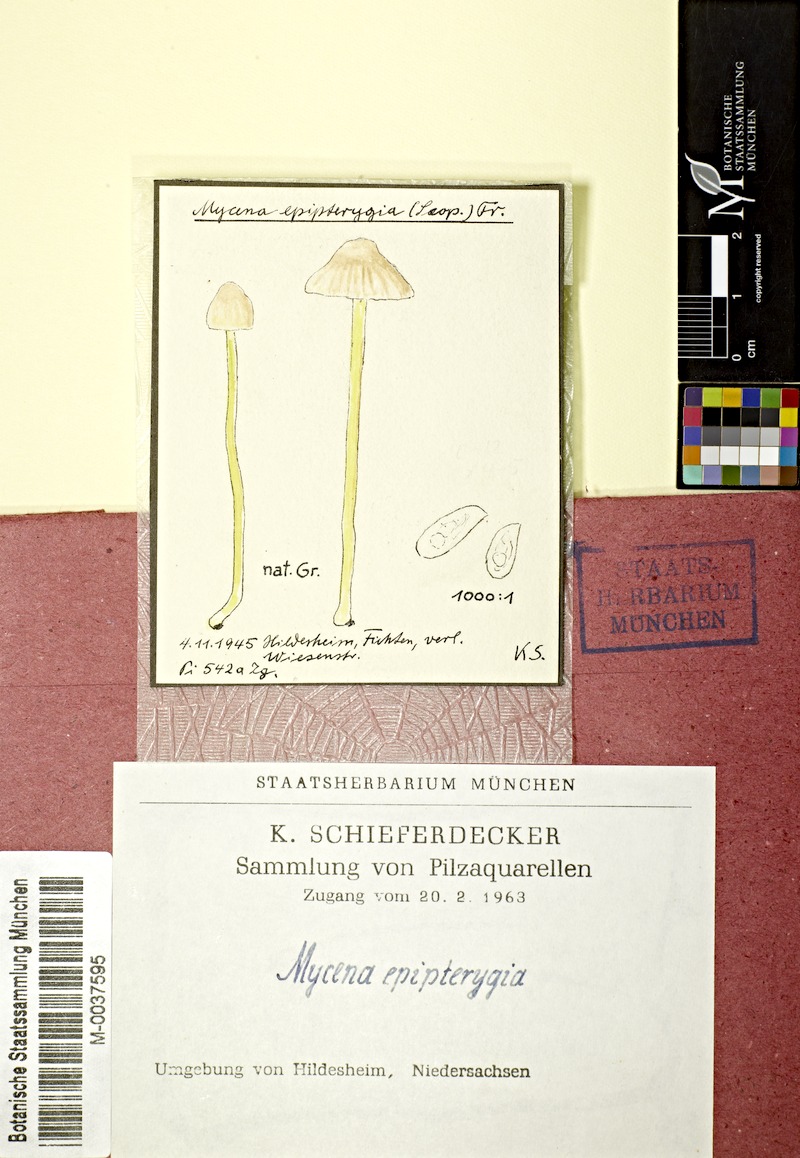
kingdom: Fungi
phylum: Basidiomycota
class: Agaricomycetes
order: Agaricales
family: Mycenaceae
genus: Mycena
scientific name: Mycena epipterygia
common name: Yellowleg bonnet
